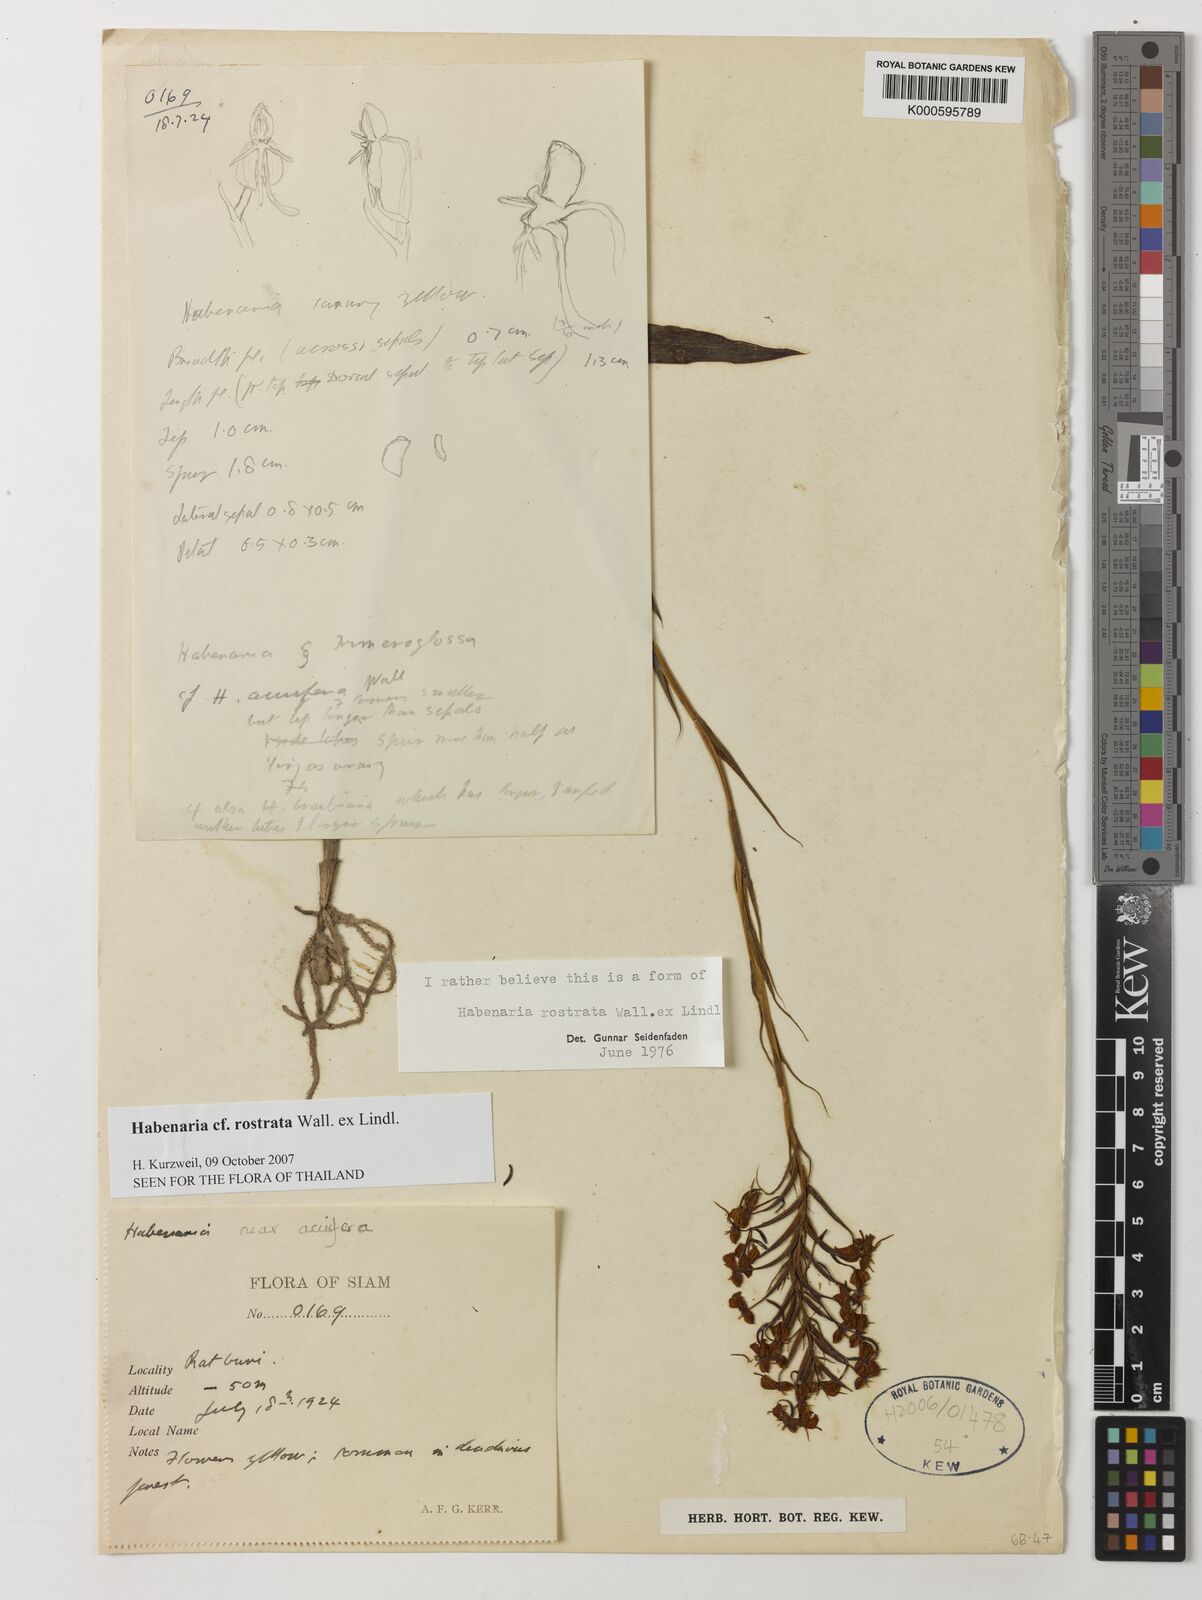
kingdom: Plantae
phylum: Tracheophyta
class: Liliopsida
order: Asparagales
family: Orchidaceae
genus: Habenaria
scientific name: Habenaria rostrata
